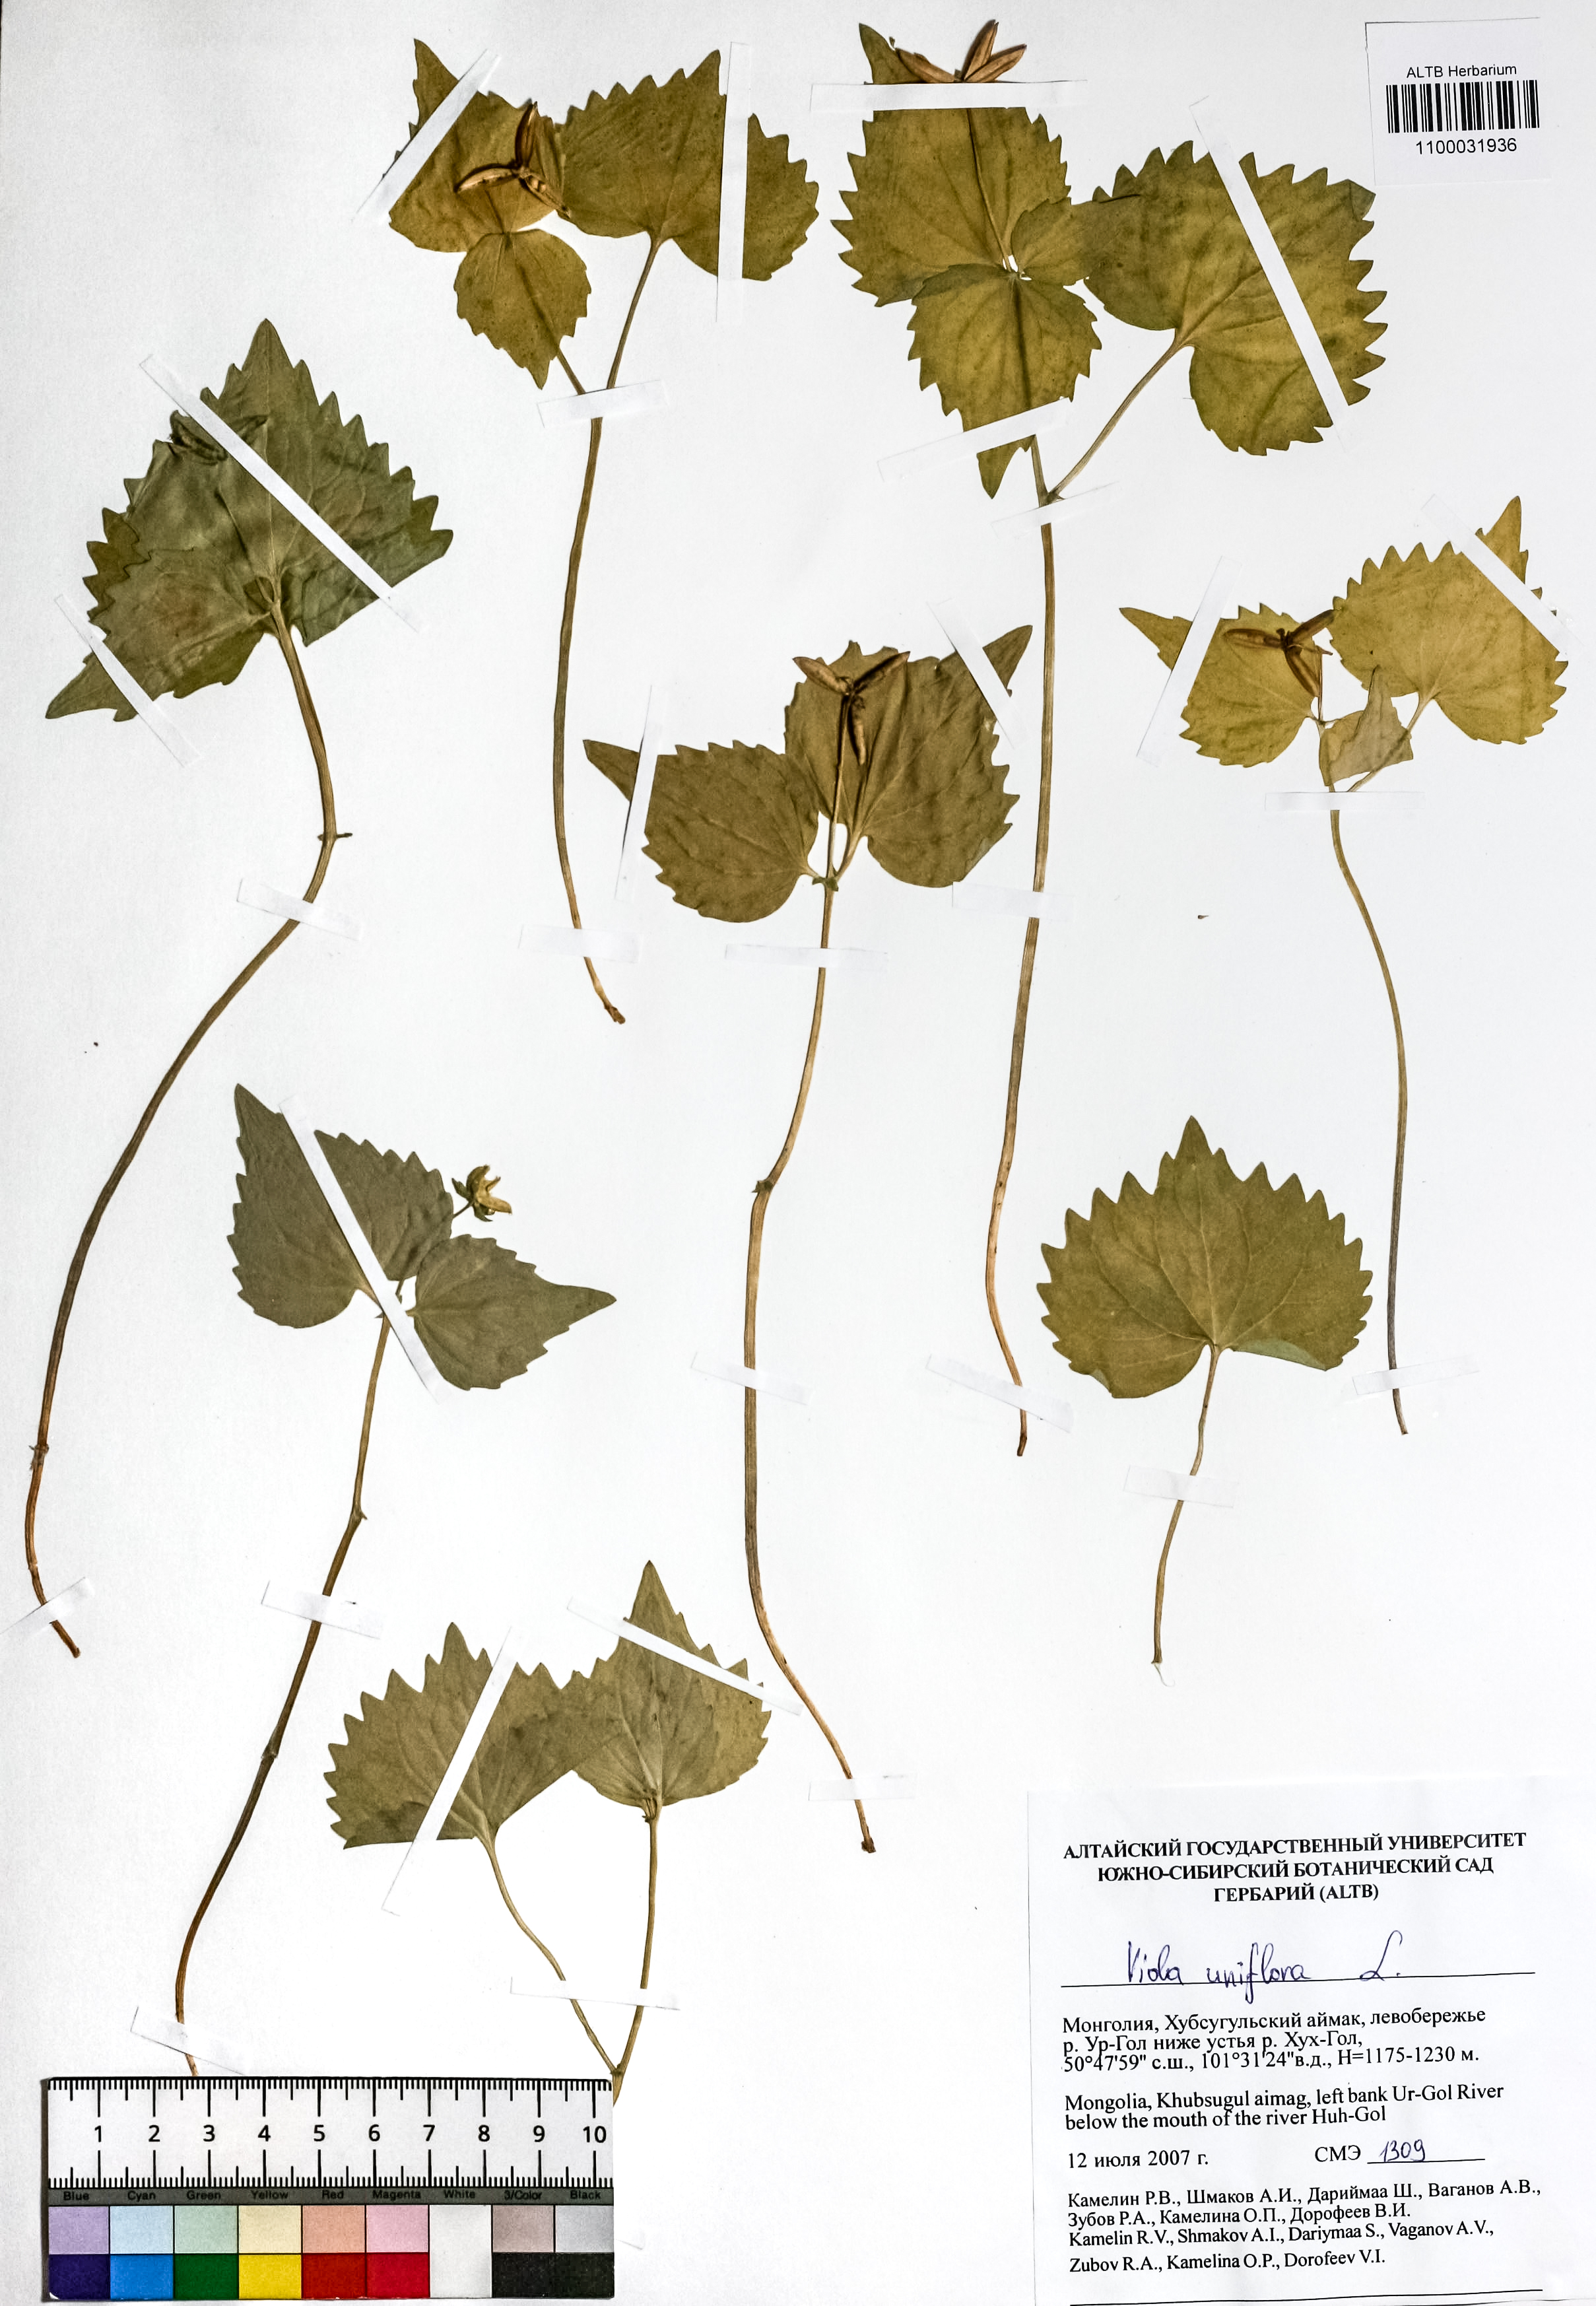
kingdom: Plantae
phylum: Tracheophyta
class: Magnoliopsida
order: Malpighiales
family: Violaceae
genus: Viola
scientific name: Viola uniflora
